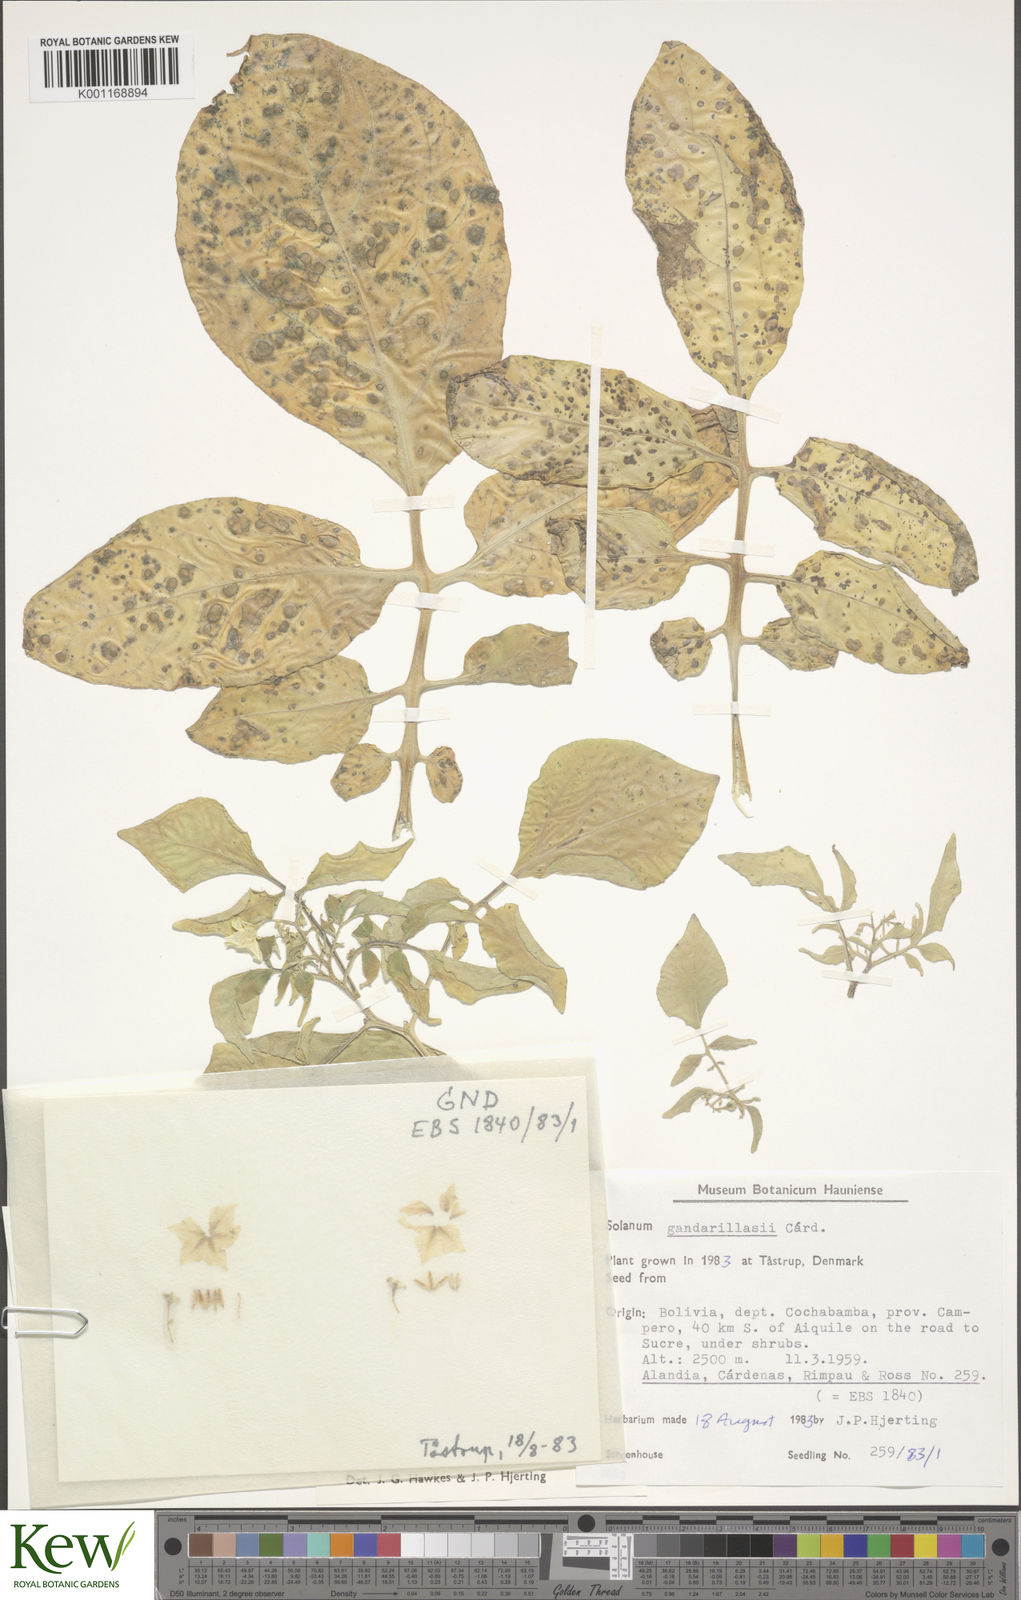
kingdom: Plantae
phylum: Tracheophyta
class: Magnoliopsida
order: Solanales
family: Solanaceae
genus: Solanum
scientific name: Solanum
